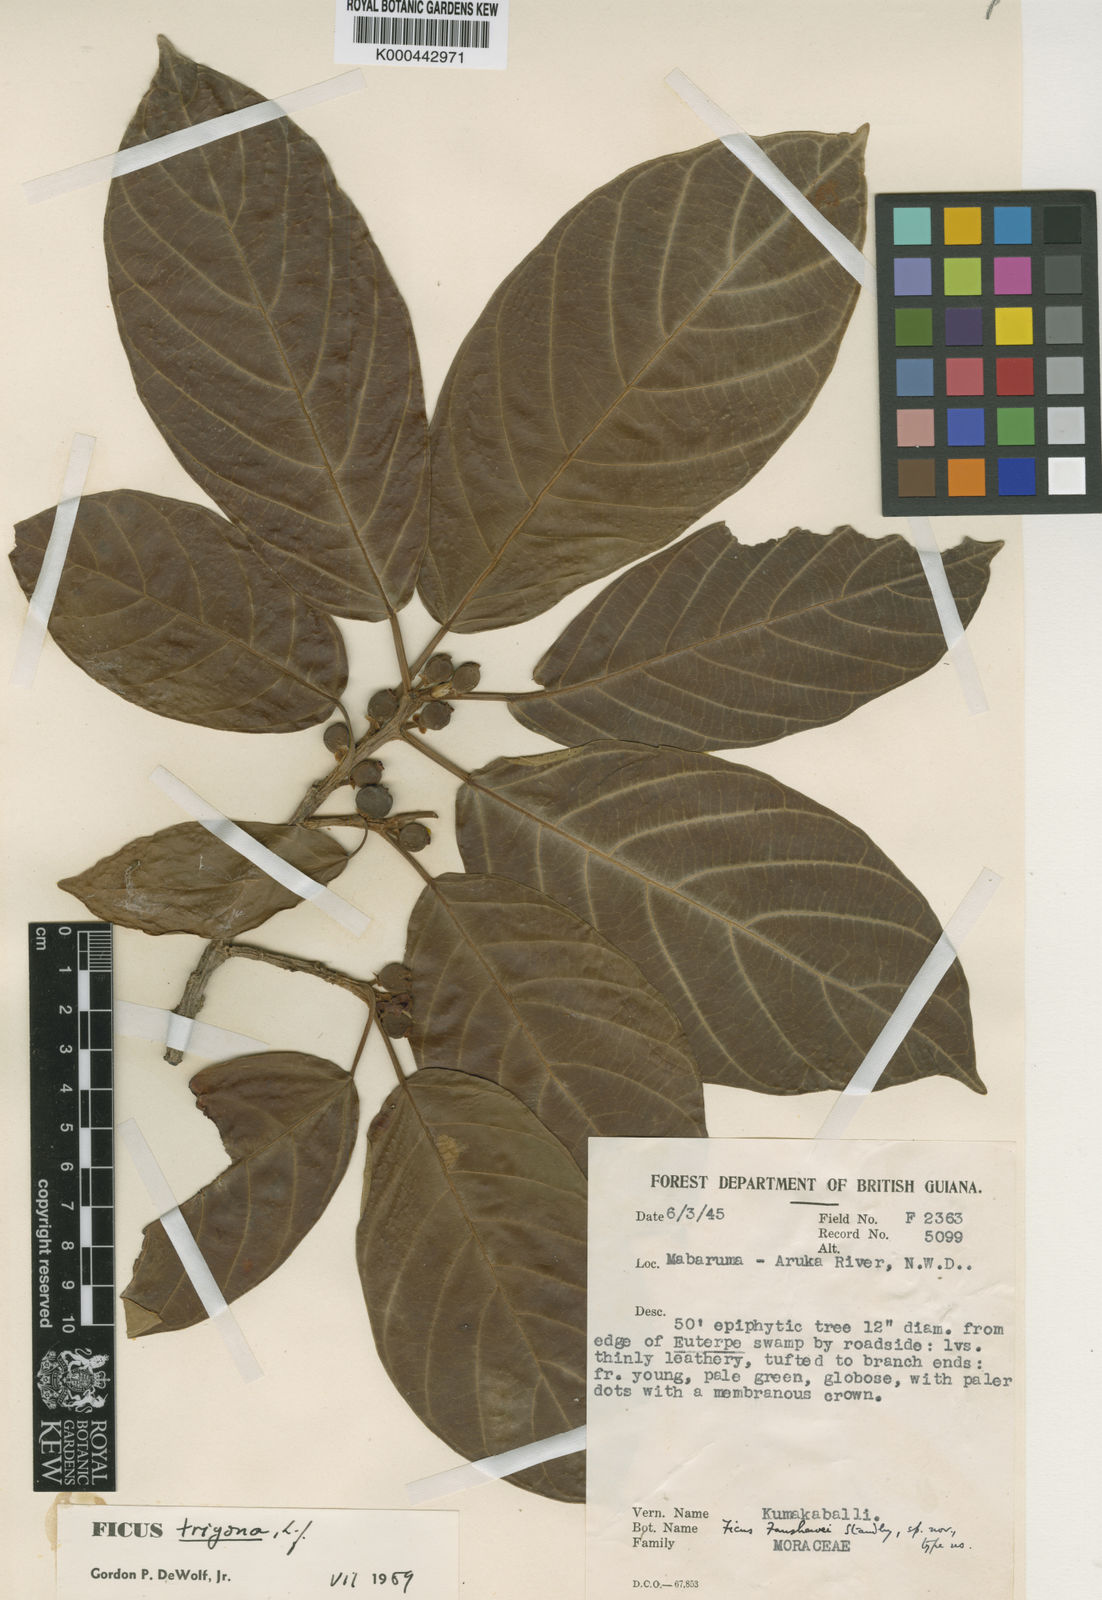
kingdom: Plantae
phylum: Tracheophyta
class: Magnoliopsida
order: Rosales
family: Moraceae
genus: Ficus
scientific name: Ficus trigona
